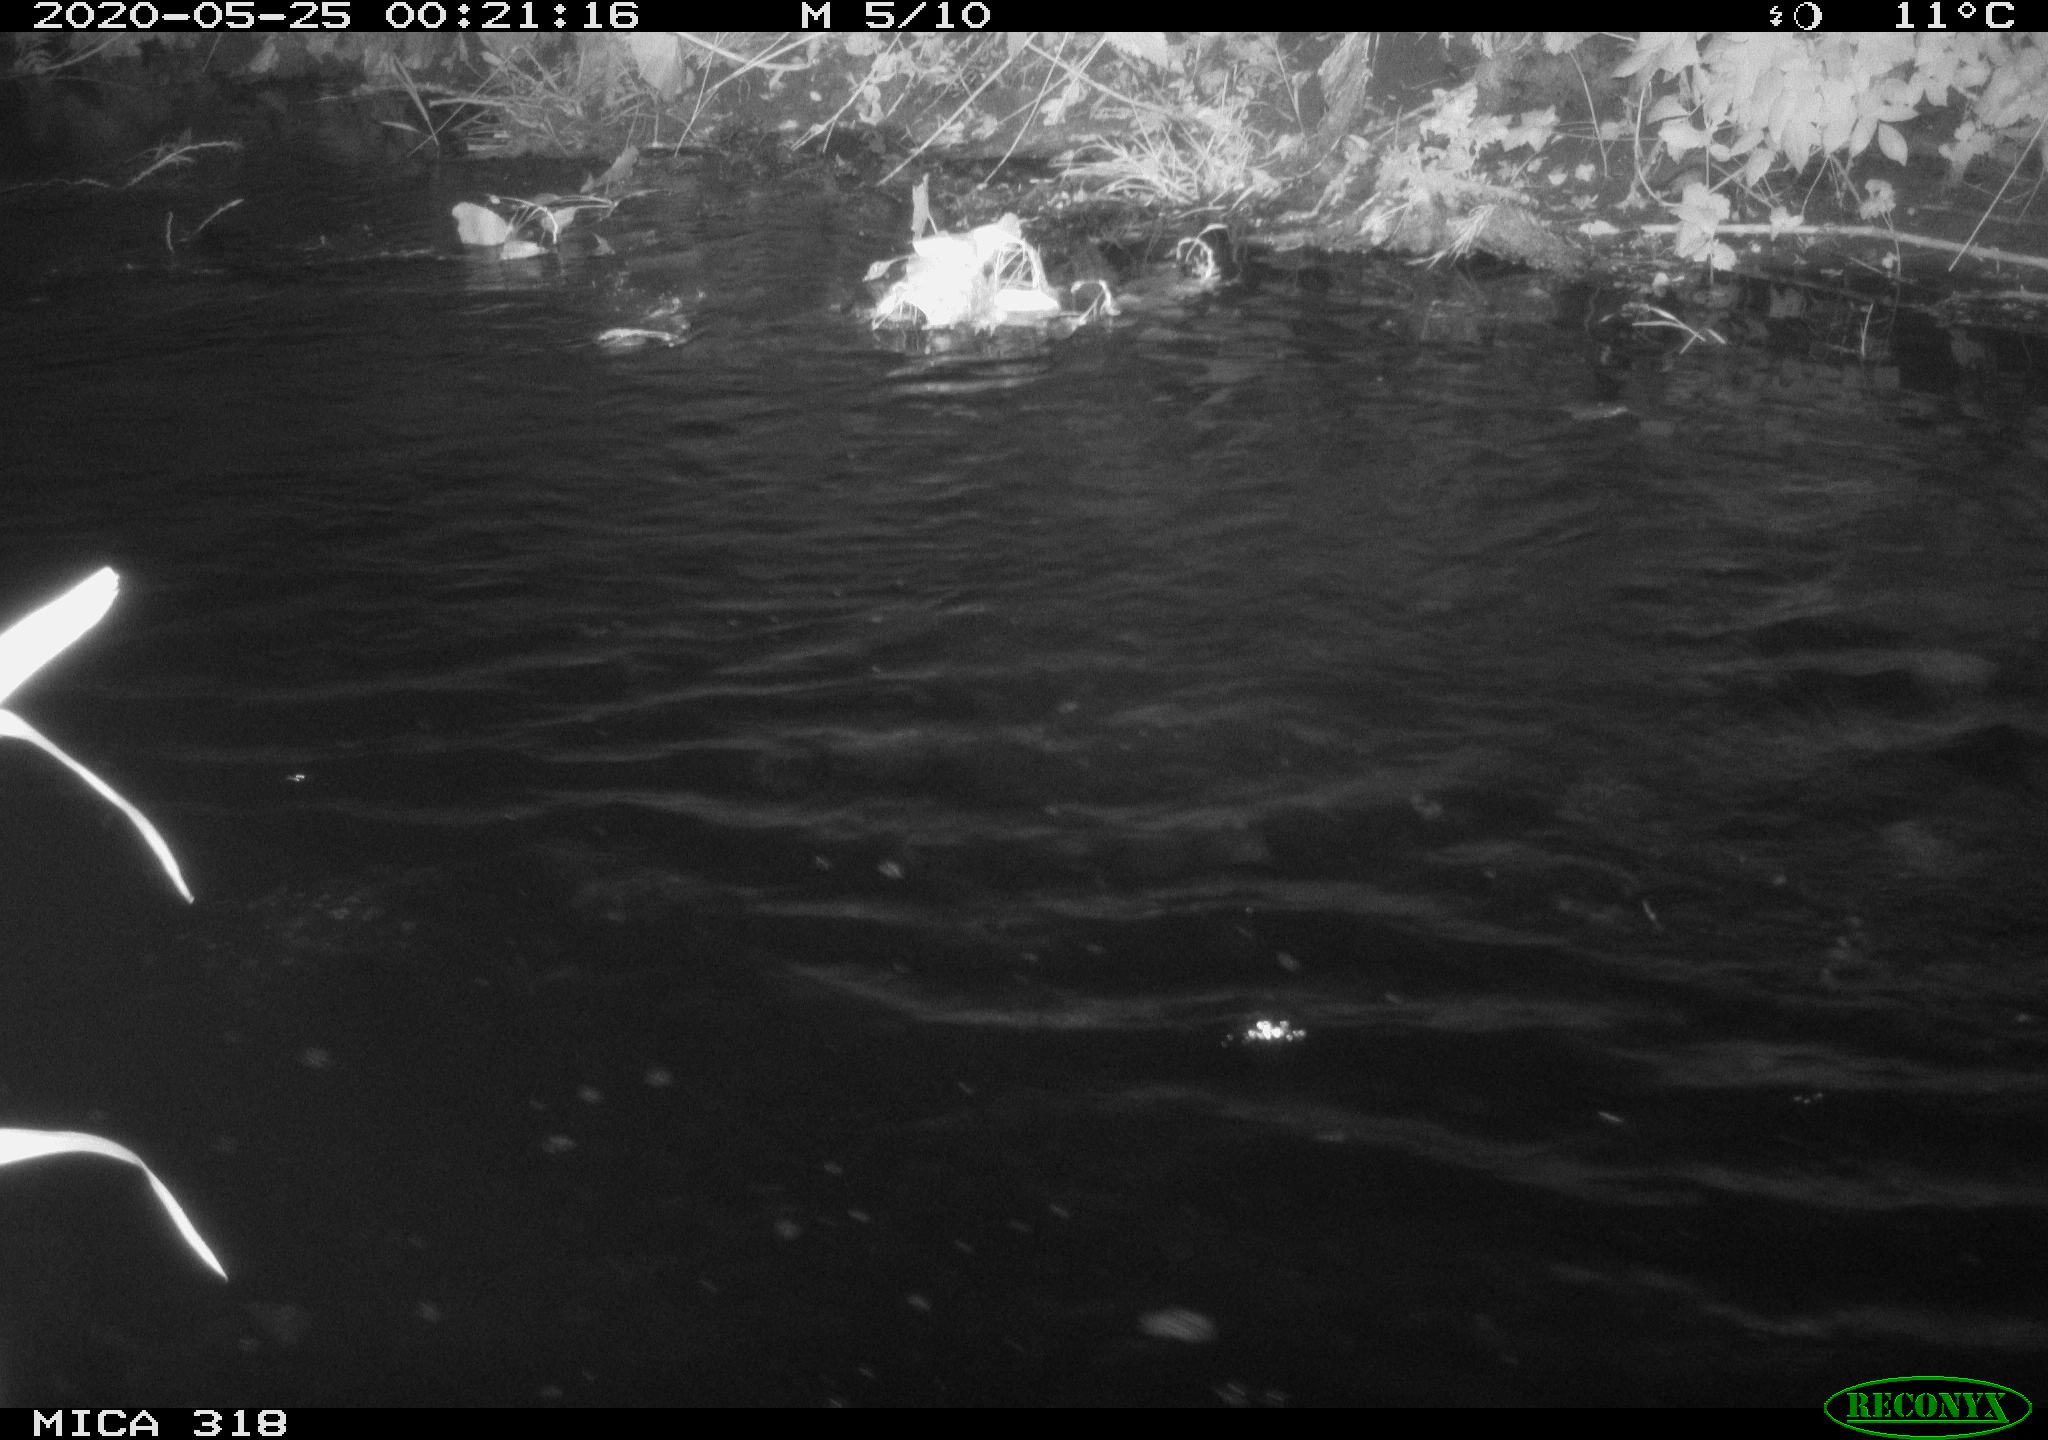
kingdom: Animalia
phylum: Chordata
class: Aves
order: Anseriformes
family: Anatidae
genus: Anas
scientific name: Anas platyrhynchos
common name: Mallard
